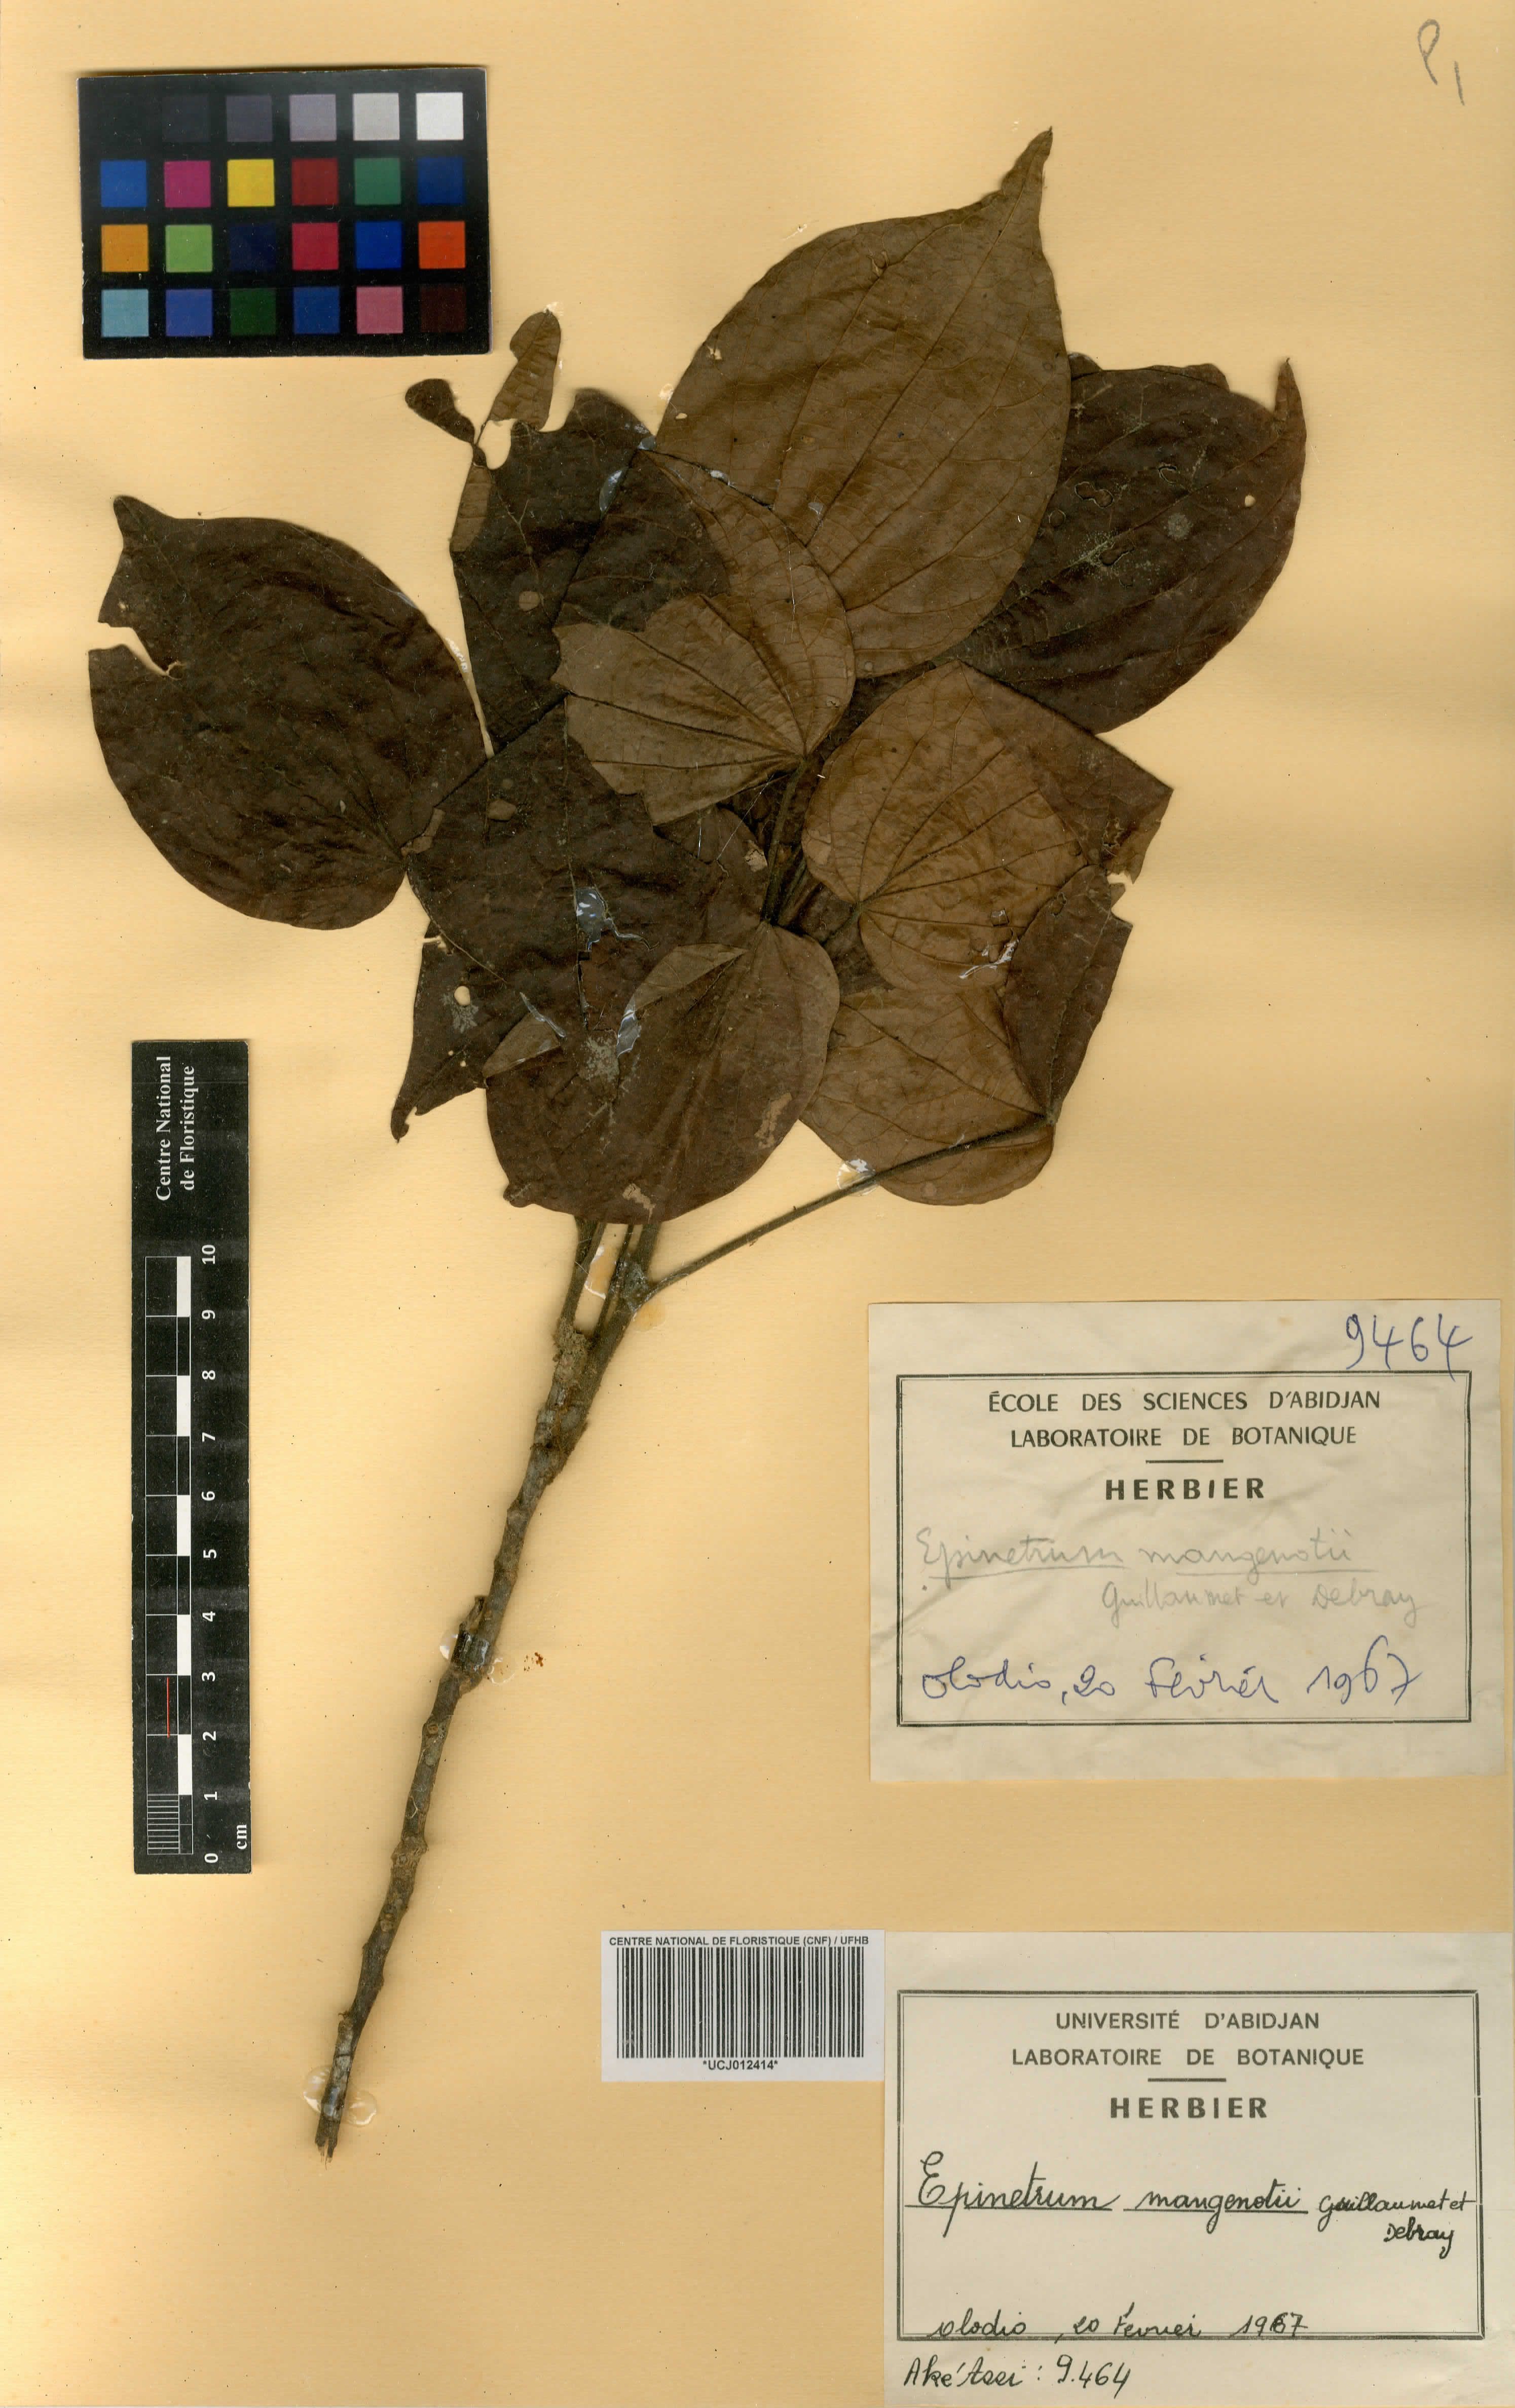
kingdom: Plantae
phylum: Tracheophyta
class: Magnoliopsida
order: Ranunculales
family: Menispermaceae
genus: Albertisia
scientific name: Albertisia mangenotii
